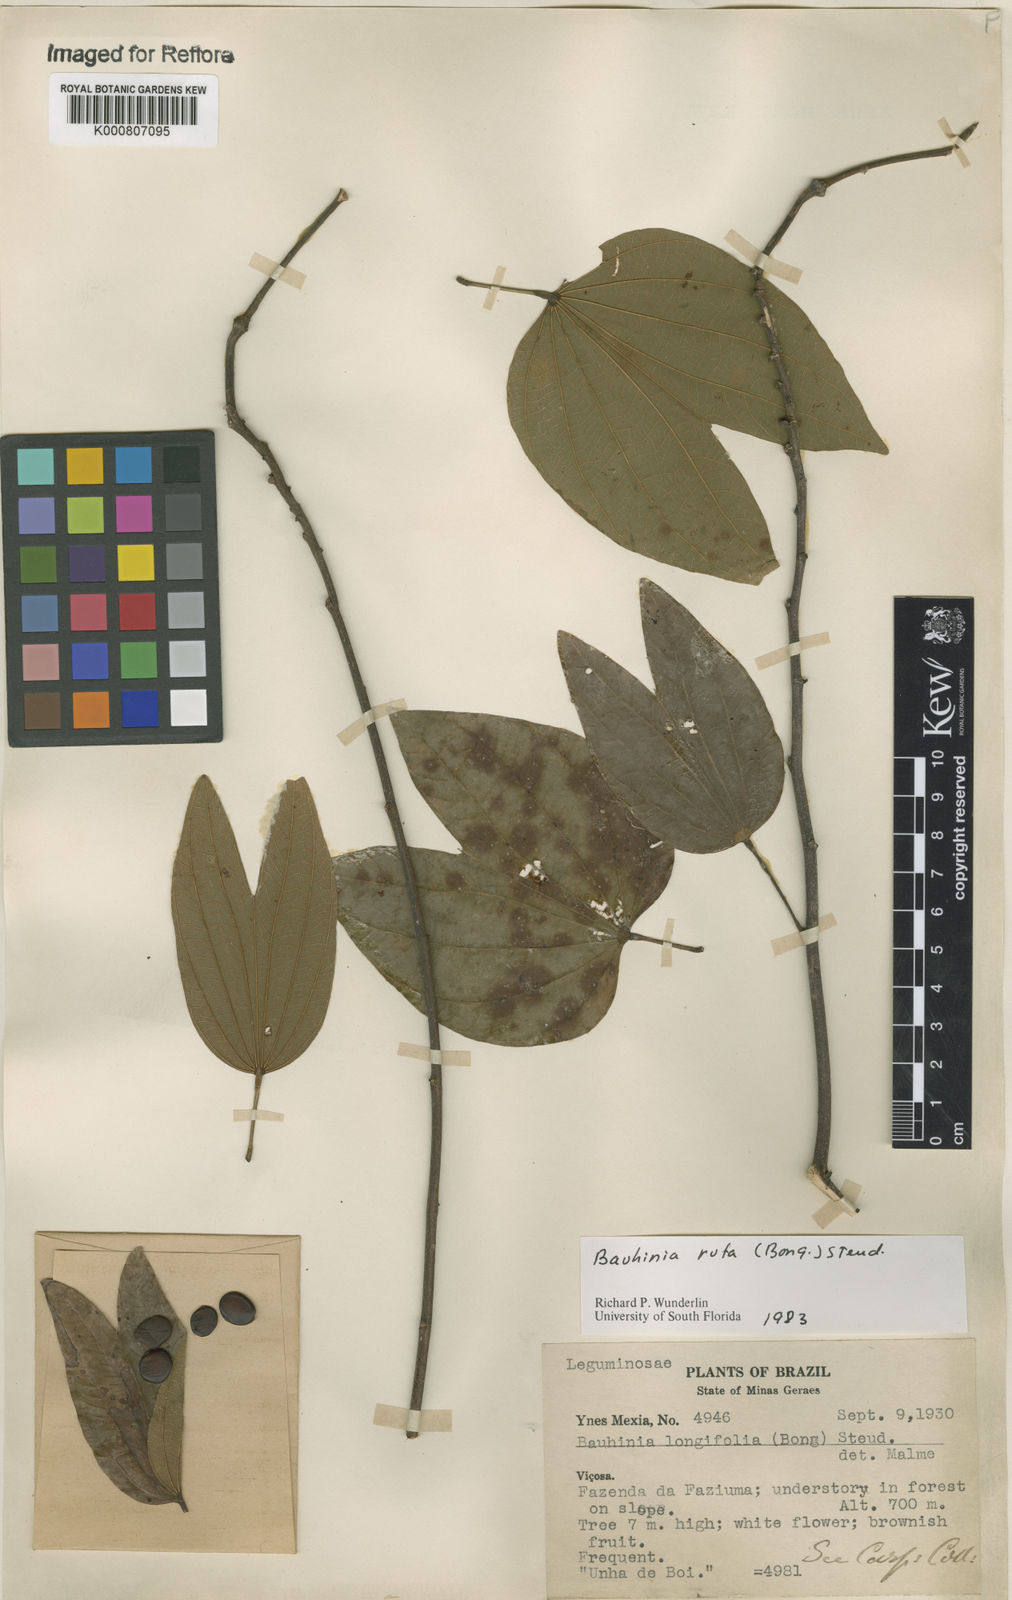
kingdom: Plantae
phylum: Tracheophyta
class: Magnoliopsida
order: Fabales
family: Fabaceae
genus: Bauhinia
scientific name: Bauhinia rufa
